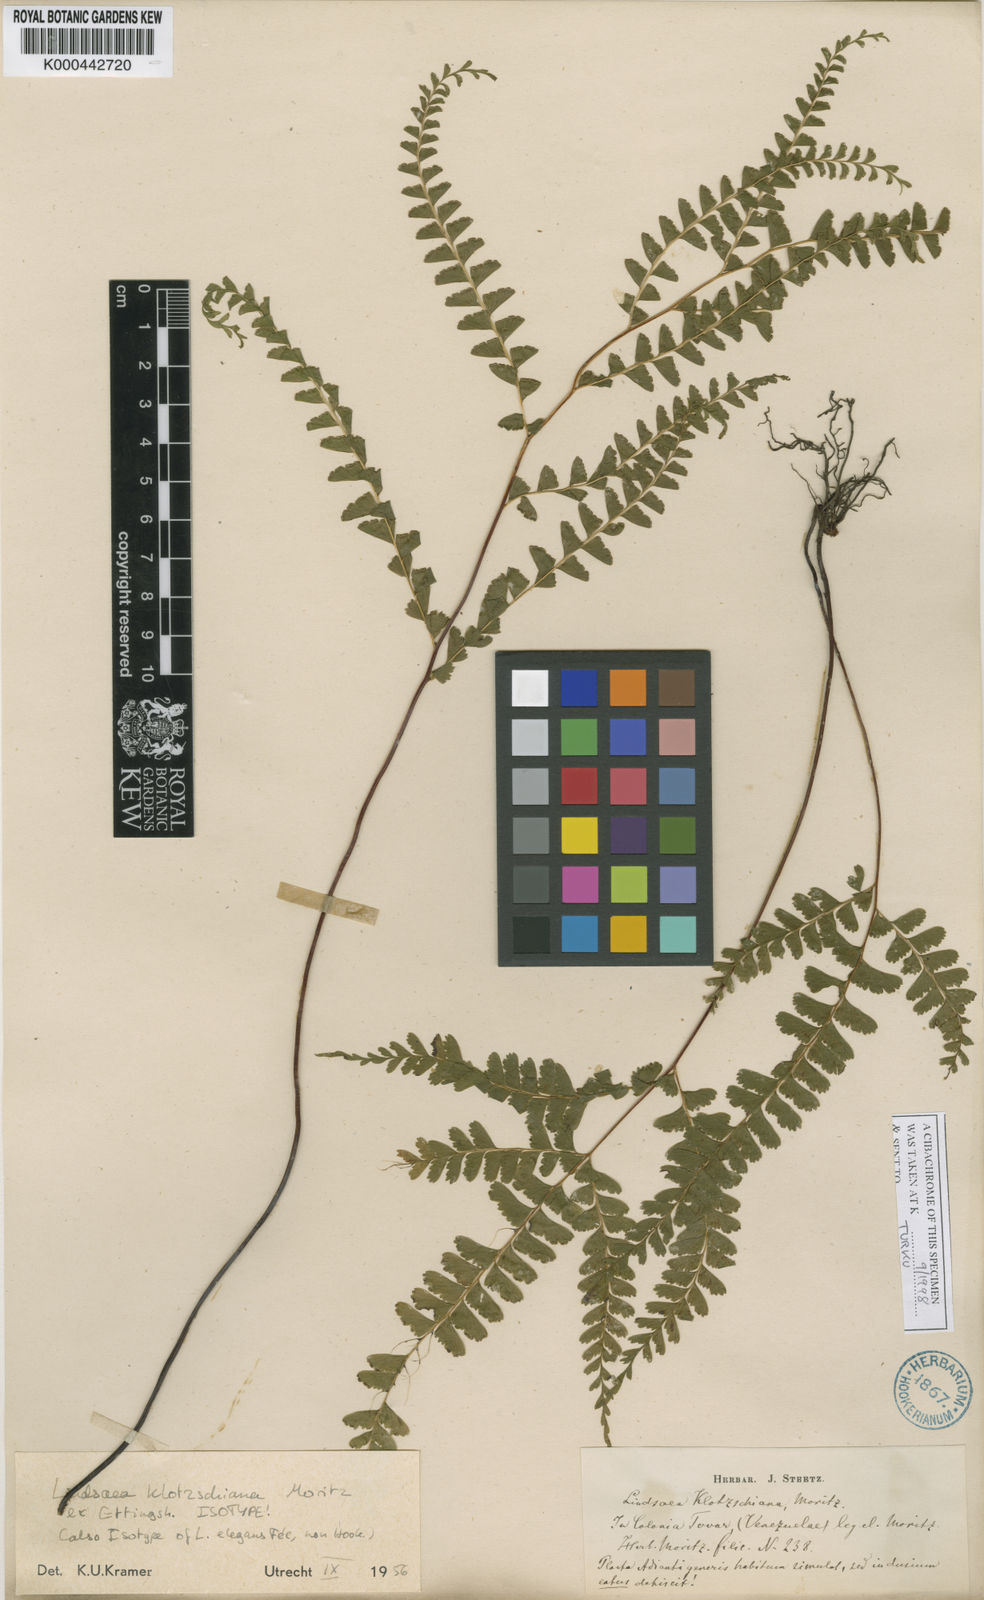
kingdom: Plantae
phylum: Tracheophyta
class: Polypodiopsida
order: Polypodiales
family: Lindsaeaceae
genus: Lindsaea
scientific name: Lindsaea feei
